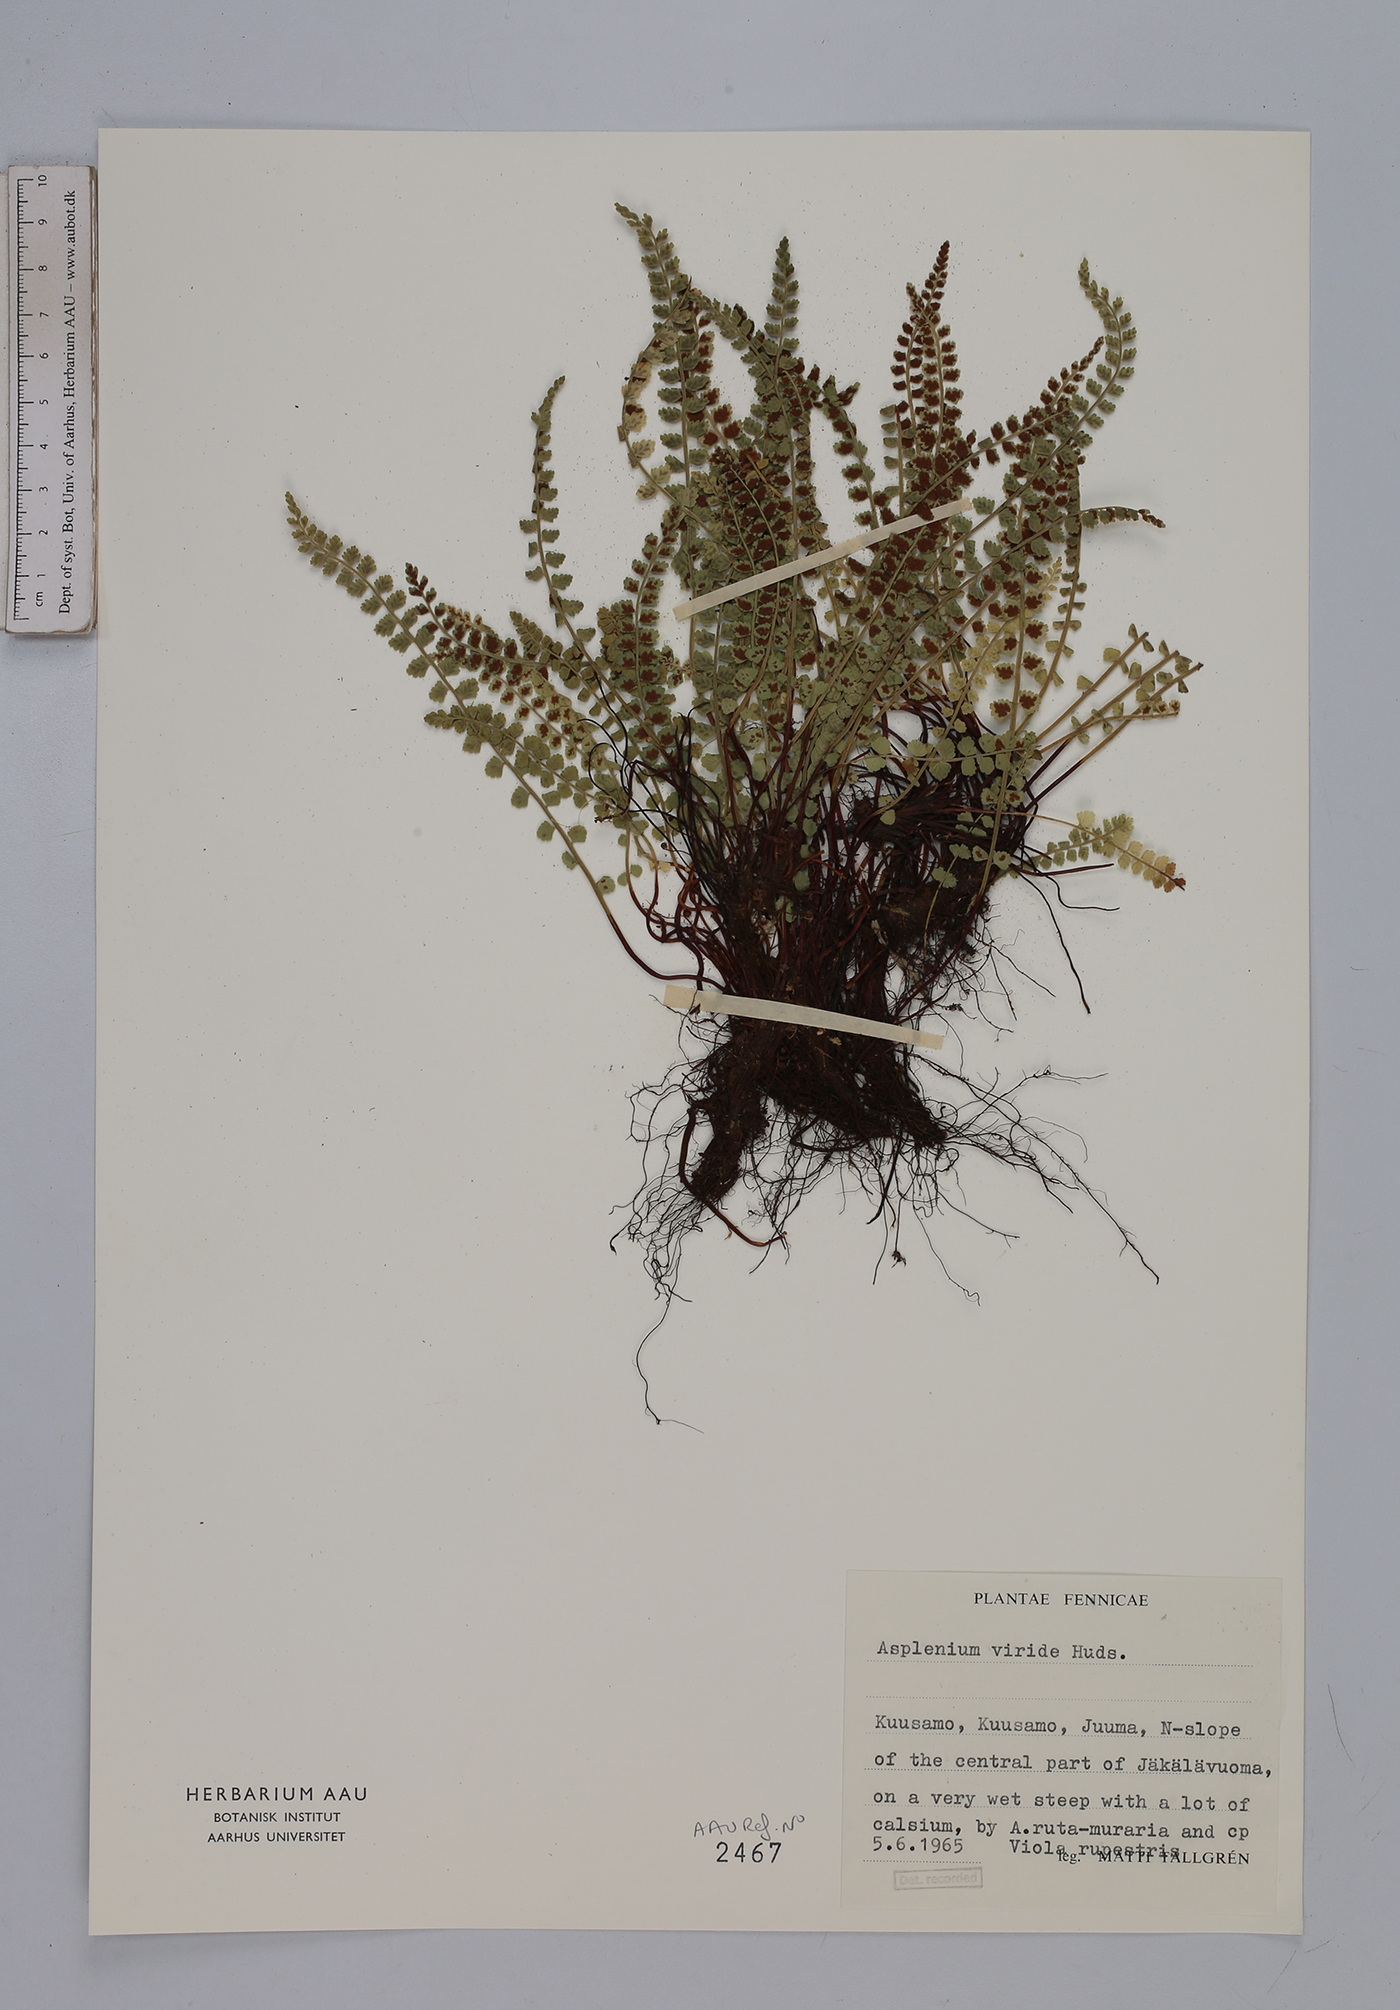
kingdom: Plantae
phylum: Tracheophyta
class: Polypodiopsida
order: Polypodiales
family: Aspleniaceae
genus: Asplenium
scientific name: Asplenium viride
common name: Green spleenwort
